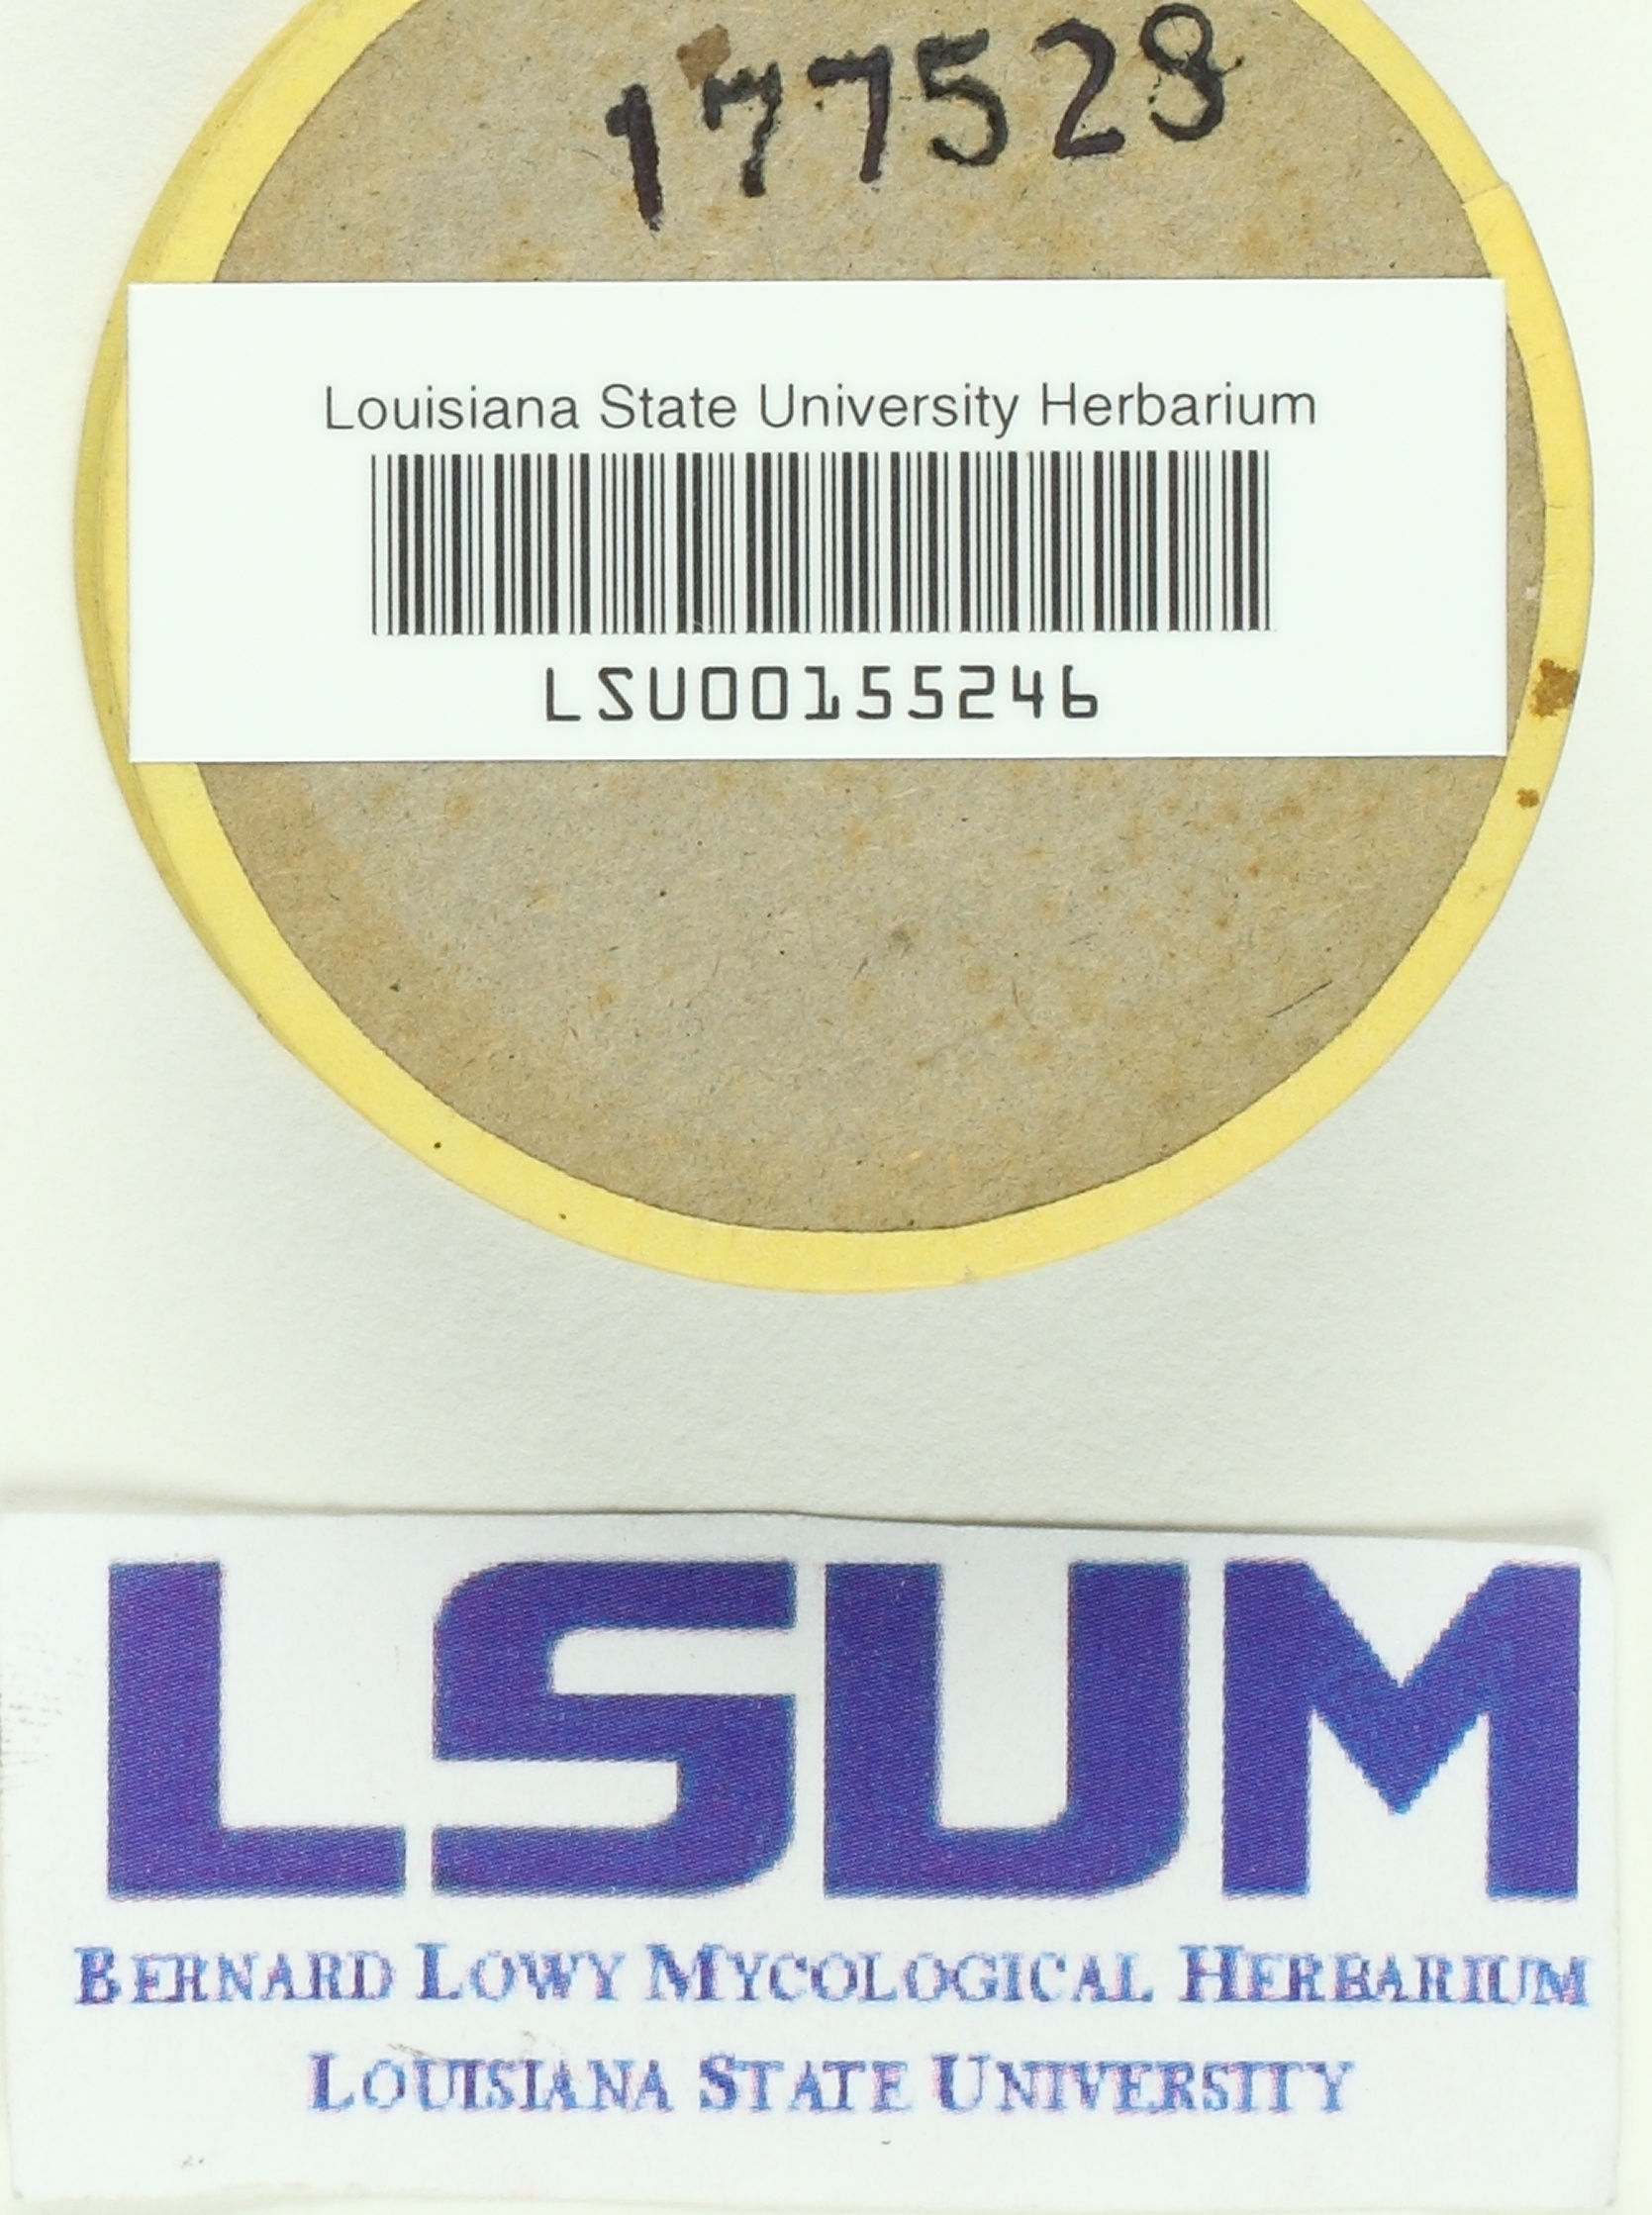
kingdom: Fungi
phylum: Basidiomycota
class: Agaricomycetes
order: Agaricales
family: Lycoperdaceae
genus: Lycoperdon
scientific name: Lycoperdon
